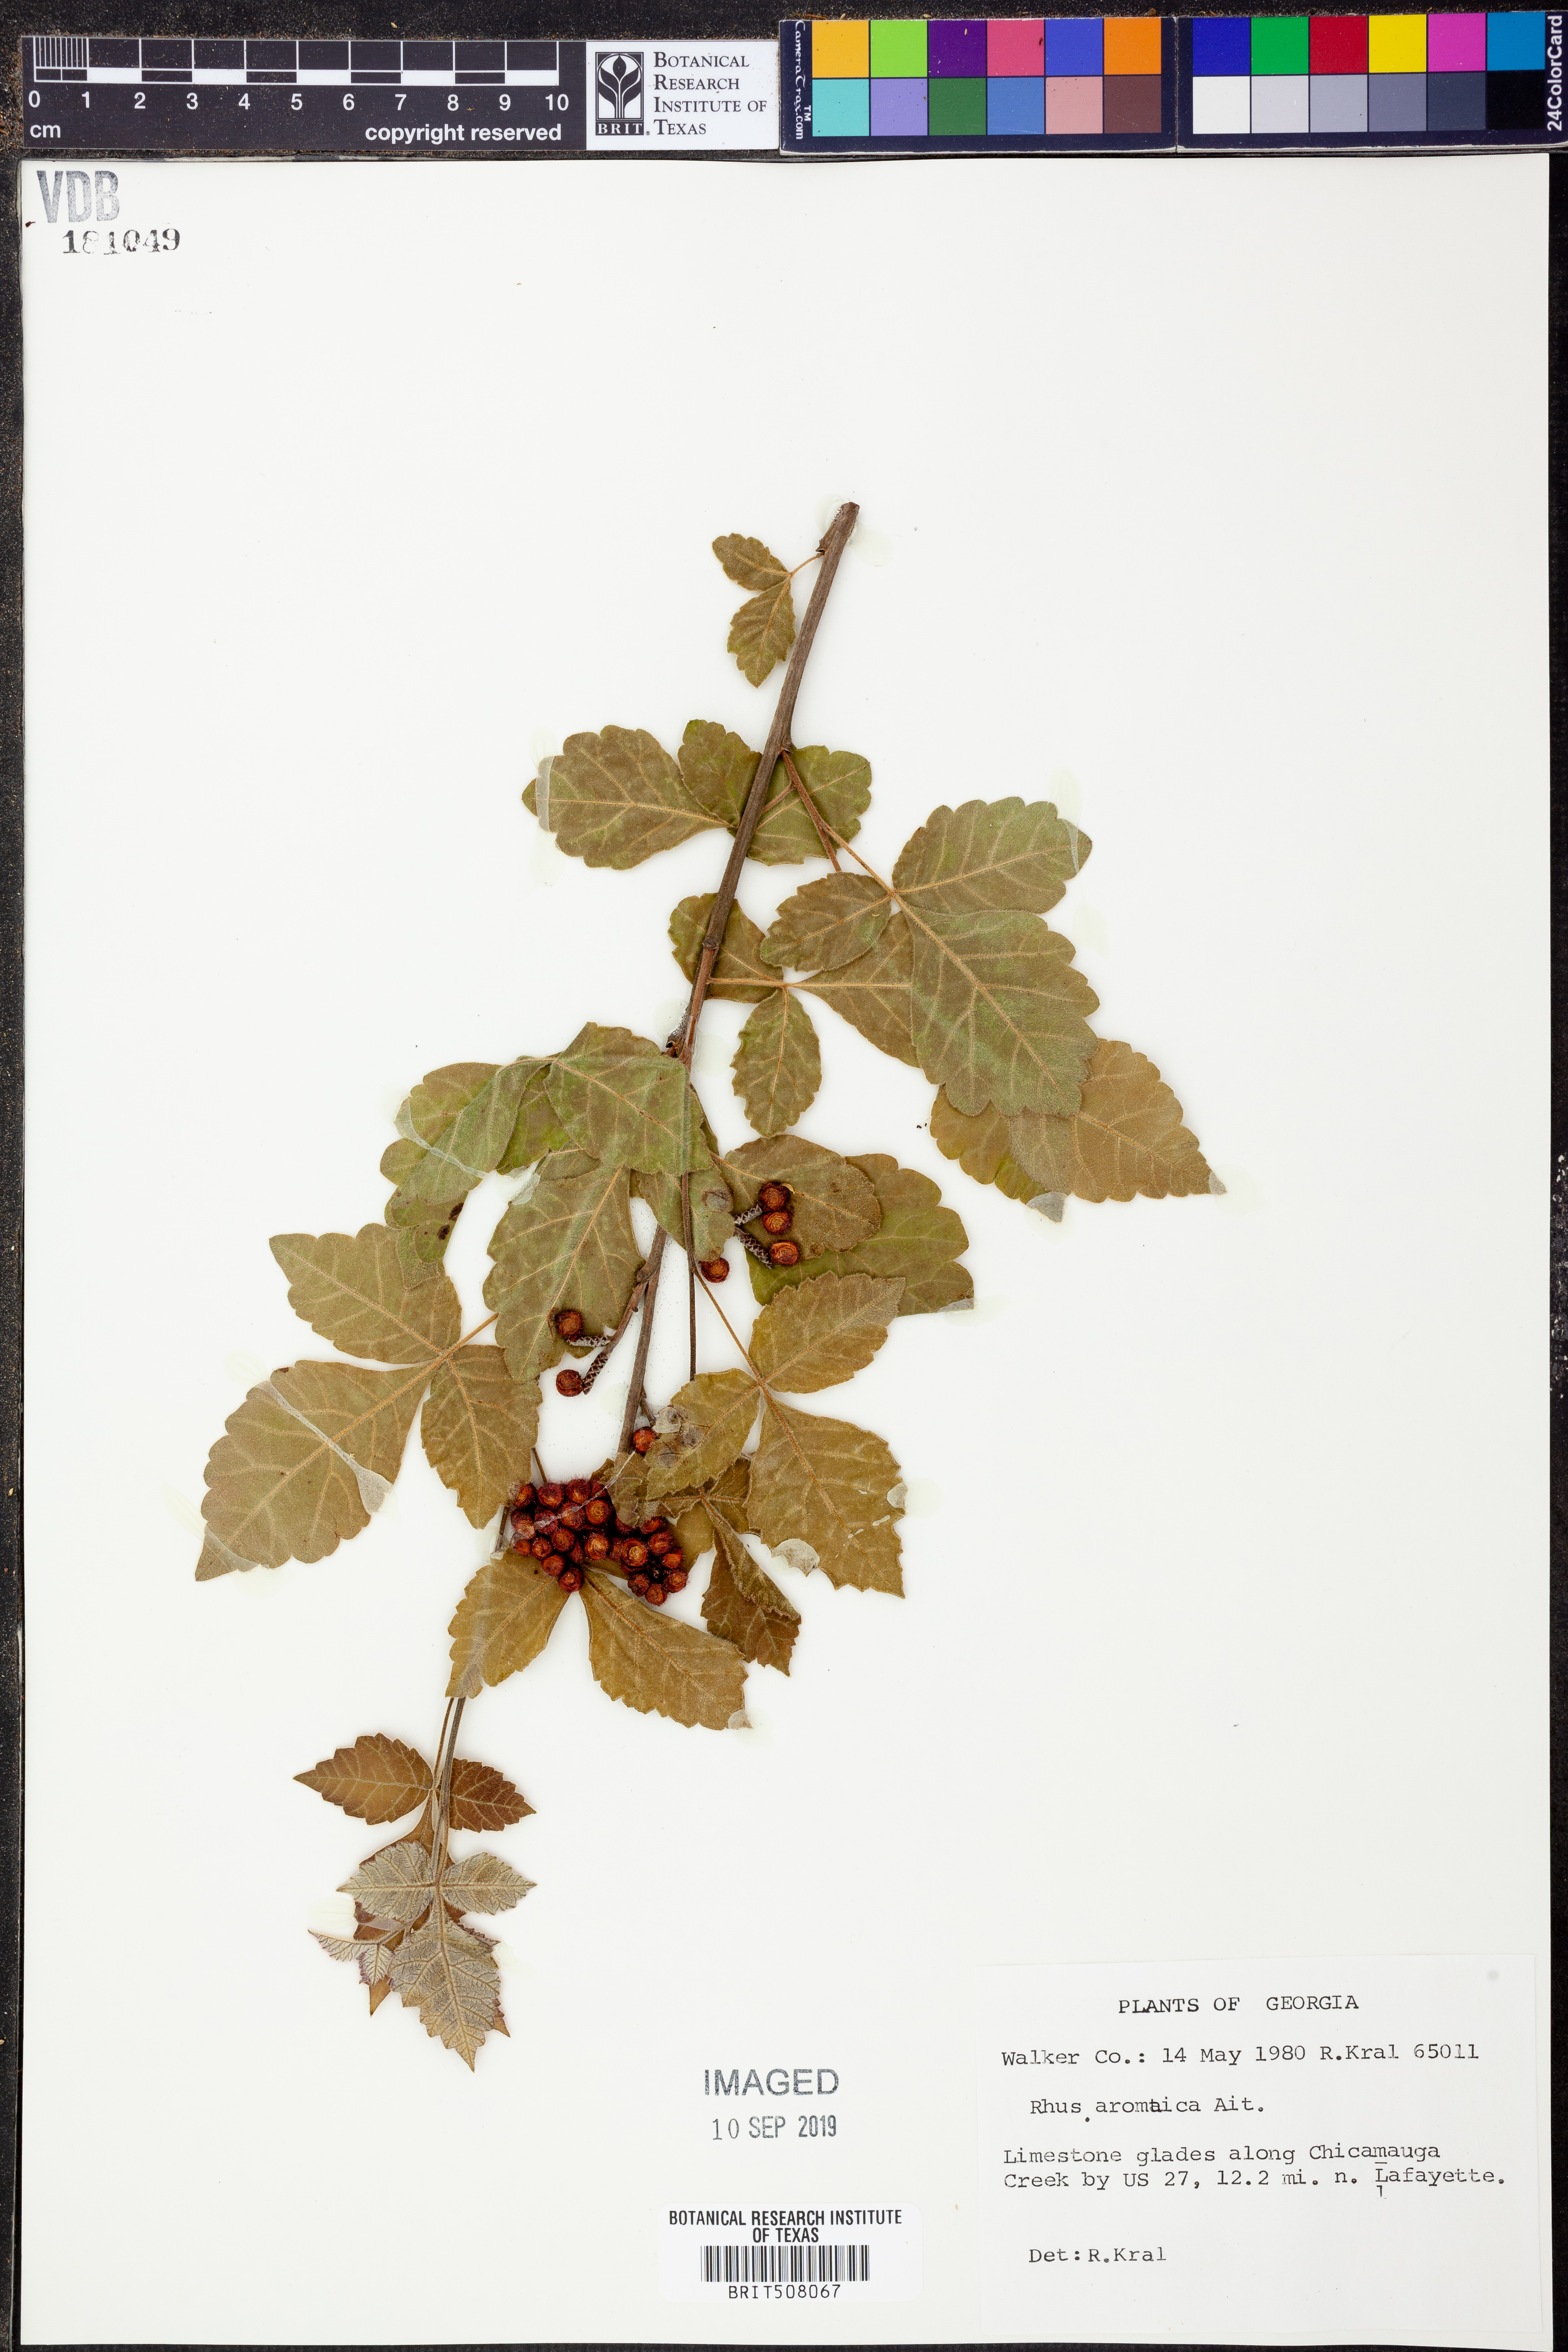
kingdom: Plantae
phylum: Tracheophyta
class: Magnoliopsida
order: Sapindales
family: Anacardiaceae
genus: Rhus
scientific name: Rhus aromatica
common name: Aromatic sumac
